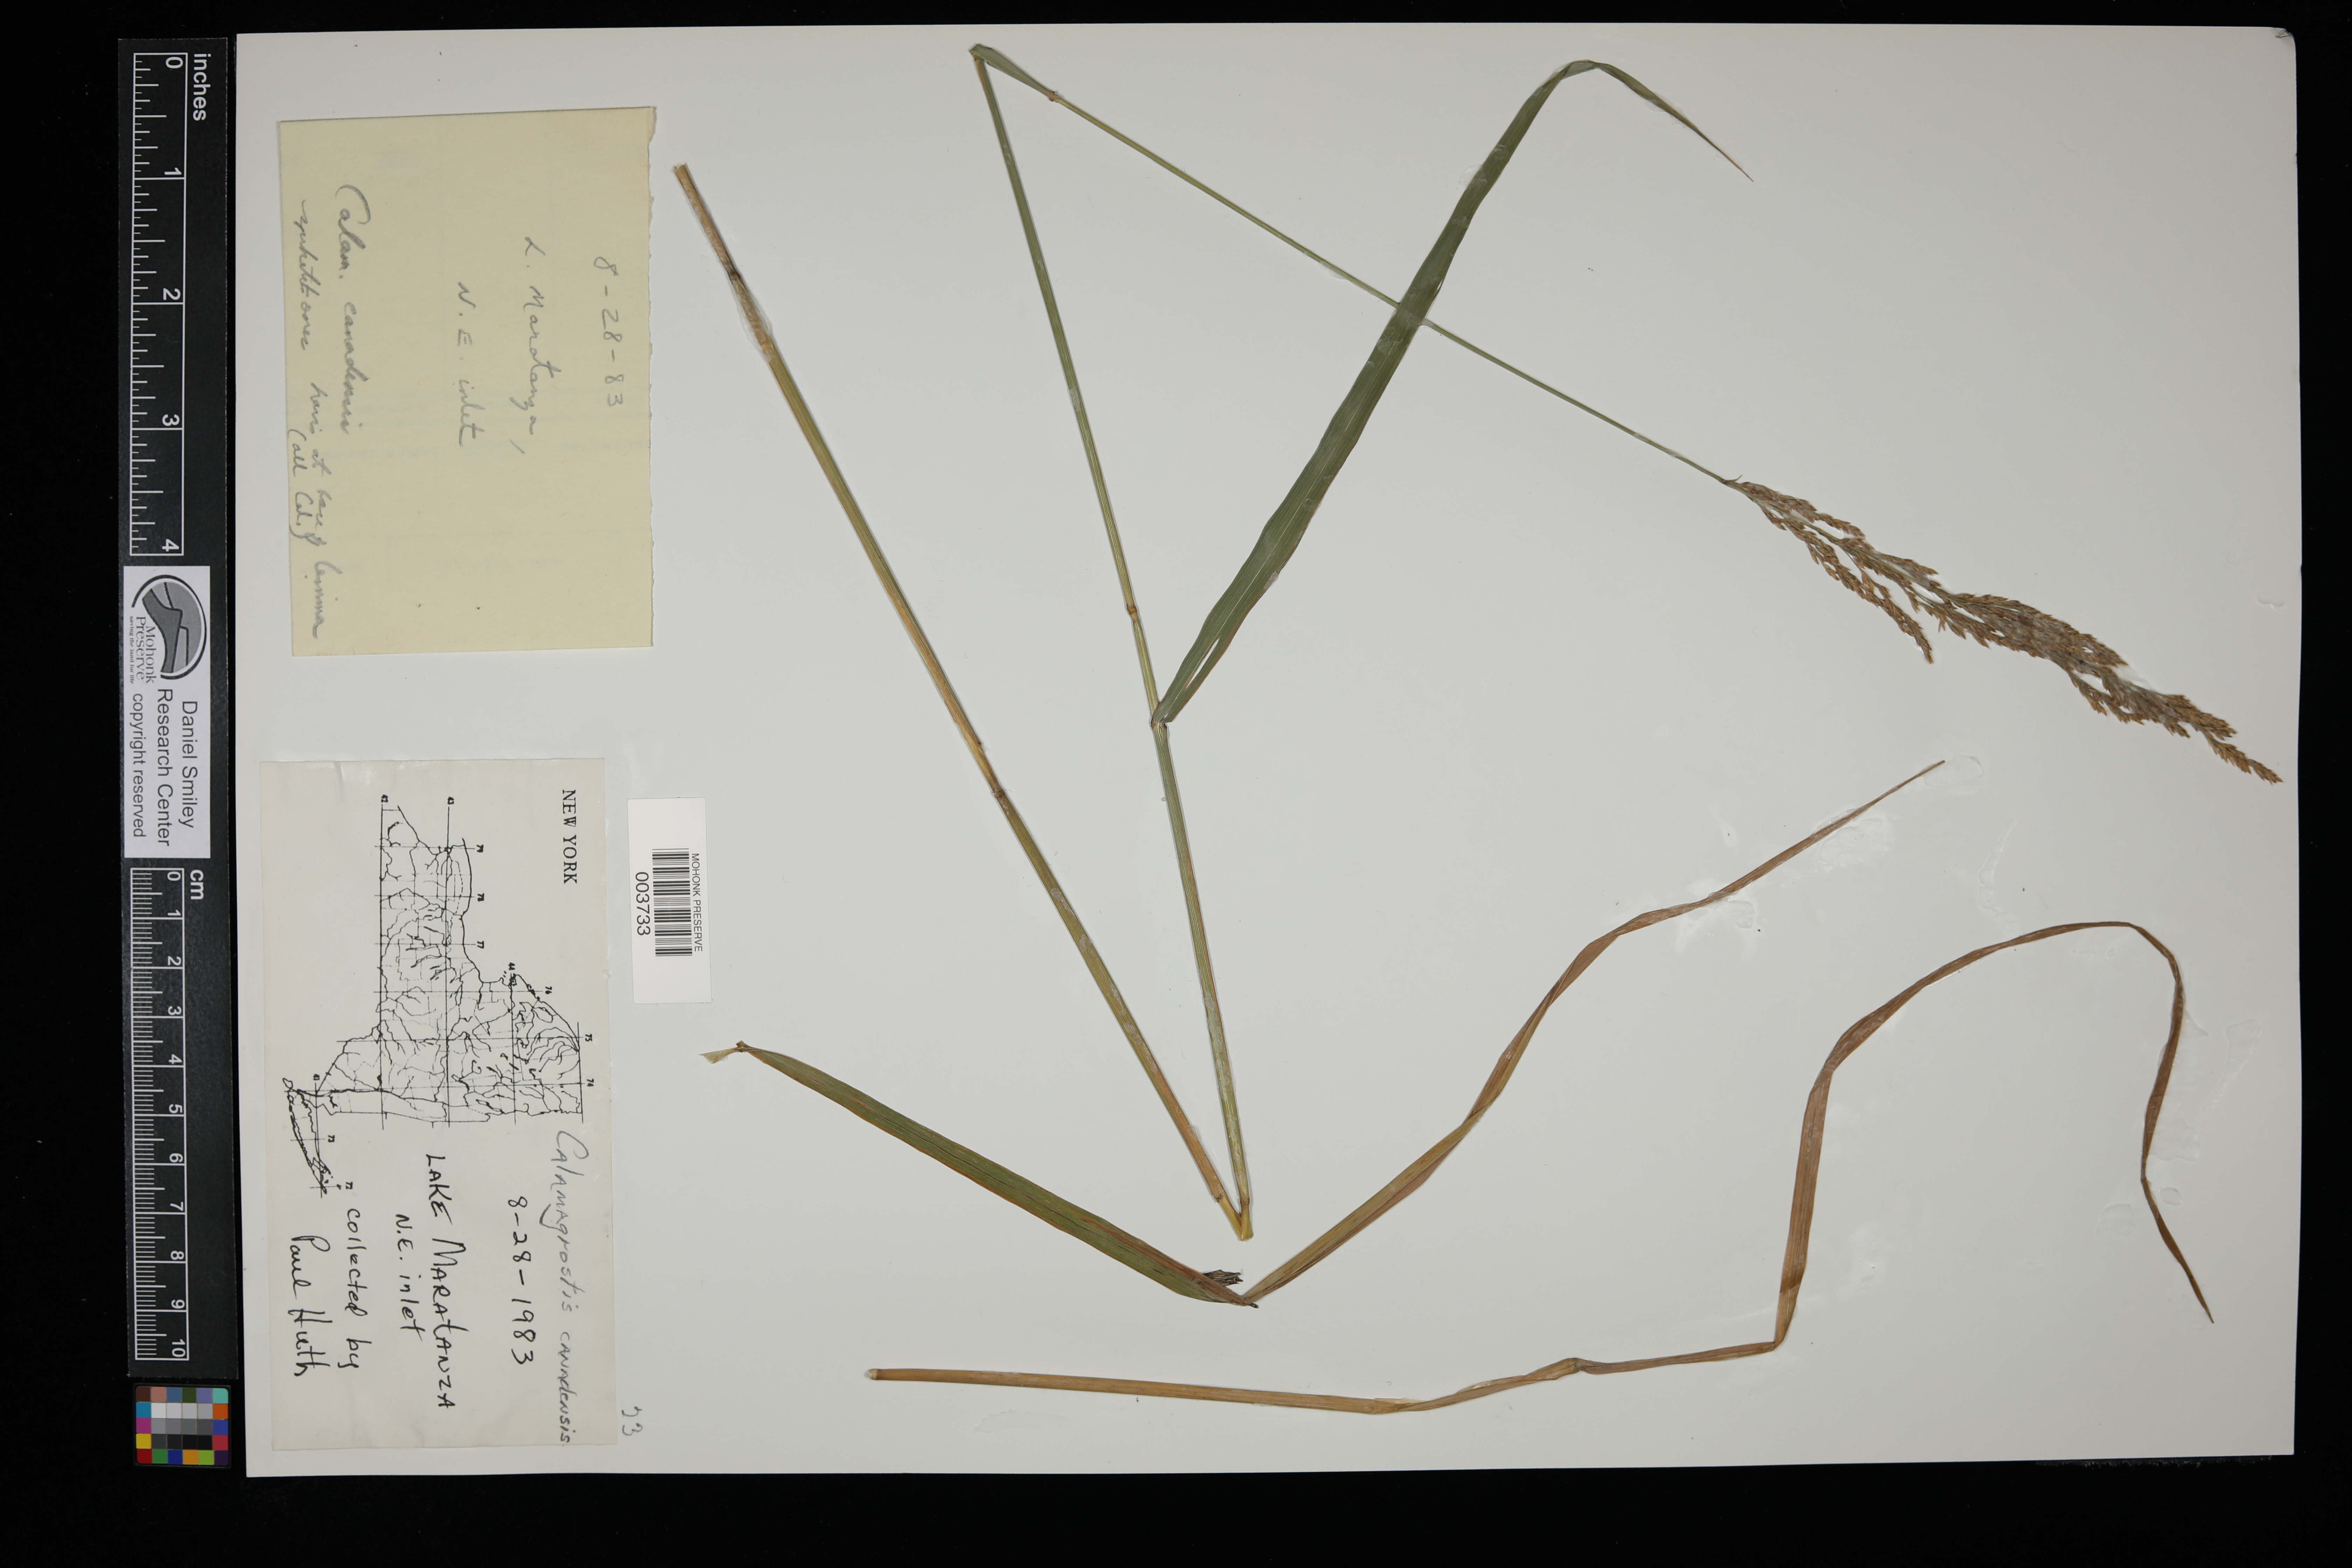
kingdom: Plantae
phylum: Tracheophyta
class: Liliopsida
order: Poales
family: Poaceae
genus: Calamagrostis
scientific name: Calamagrostis canadensis
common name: Canada bluejoint
